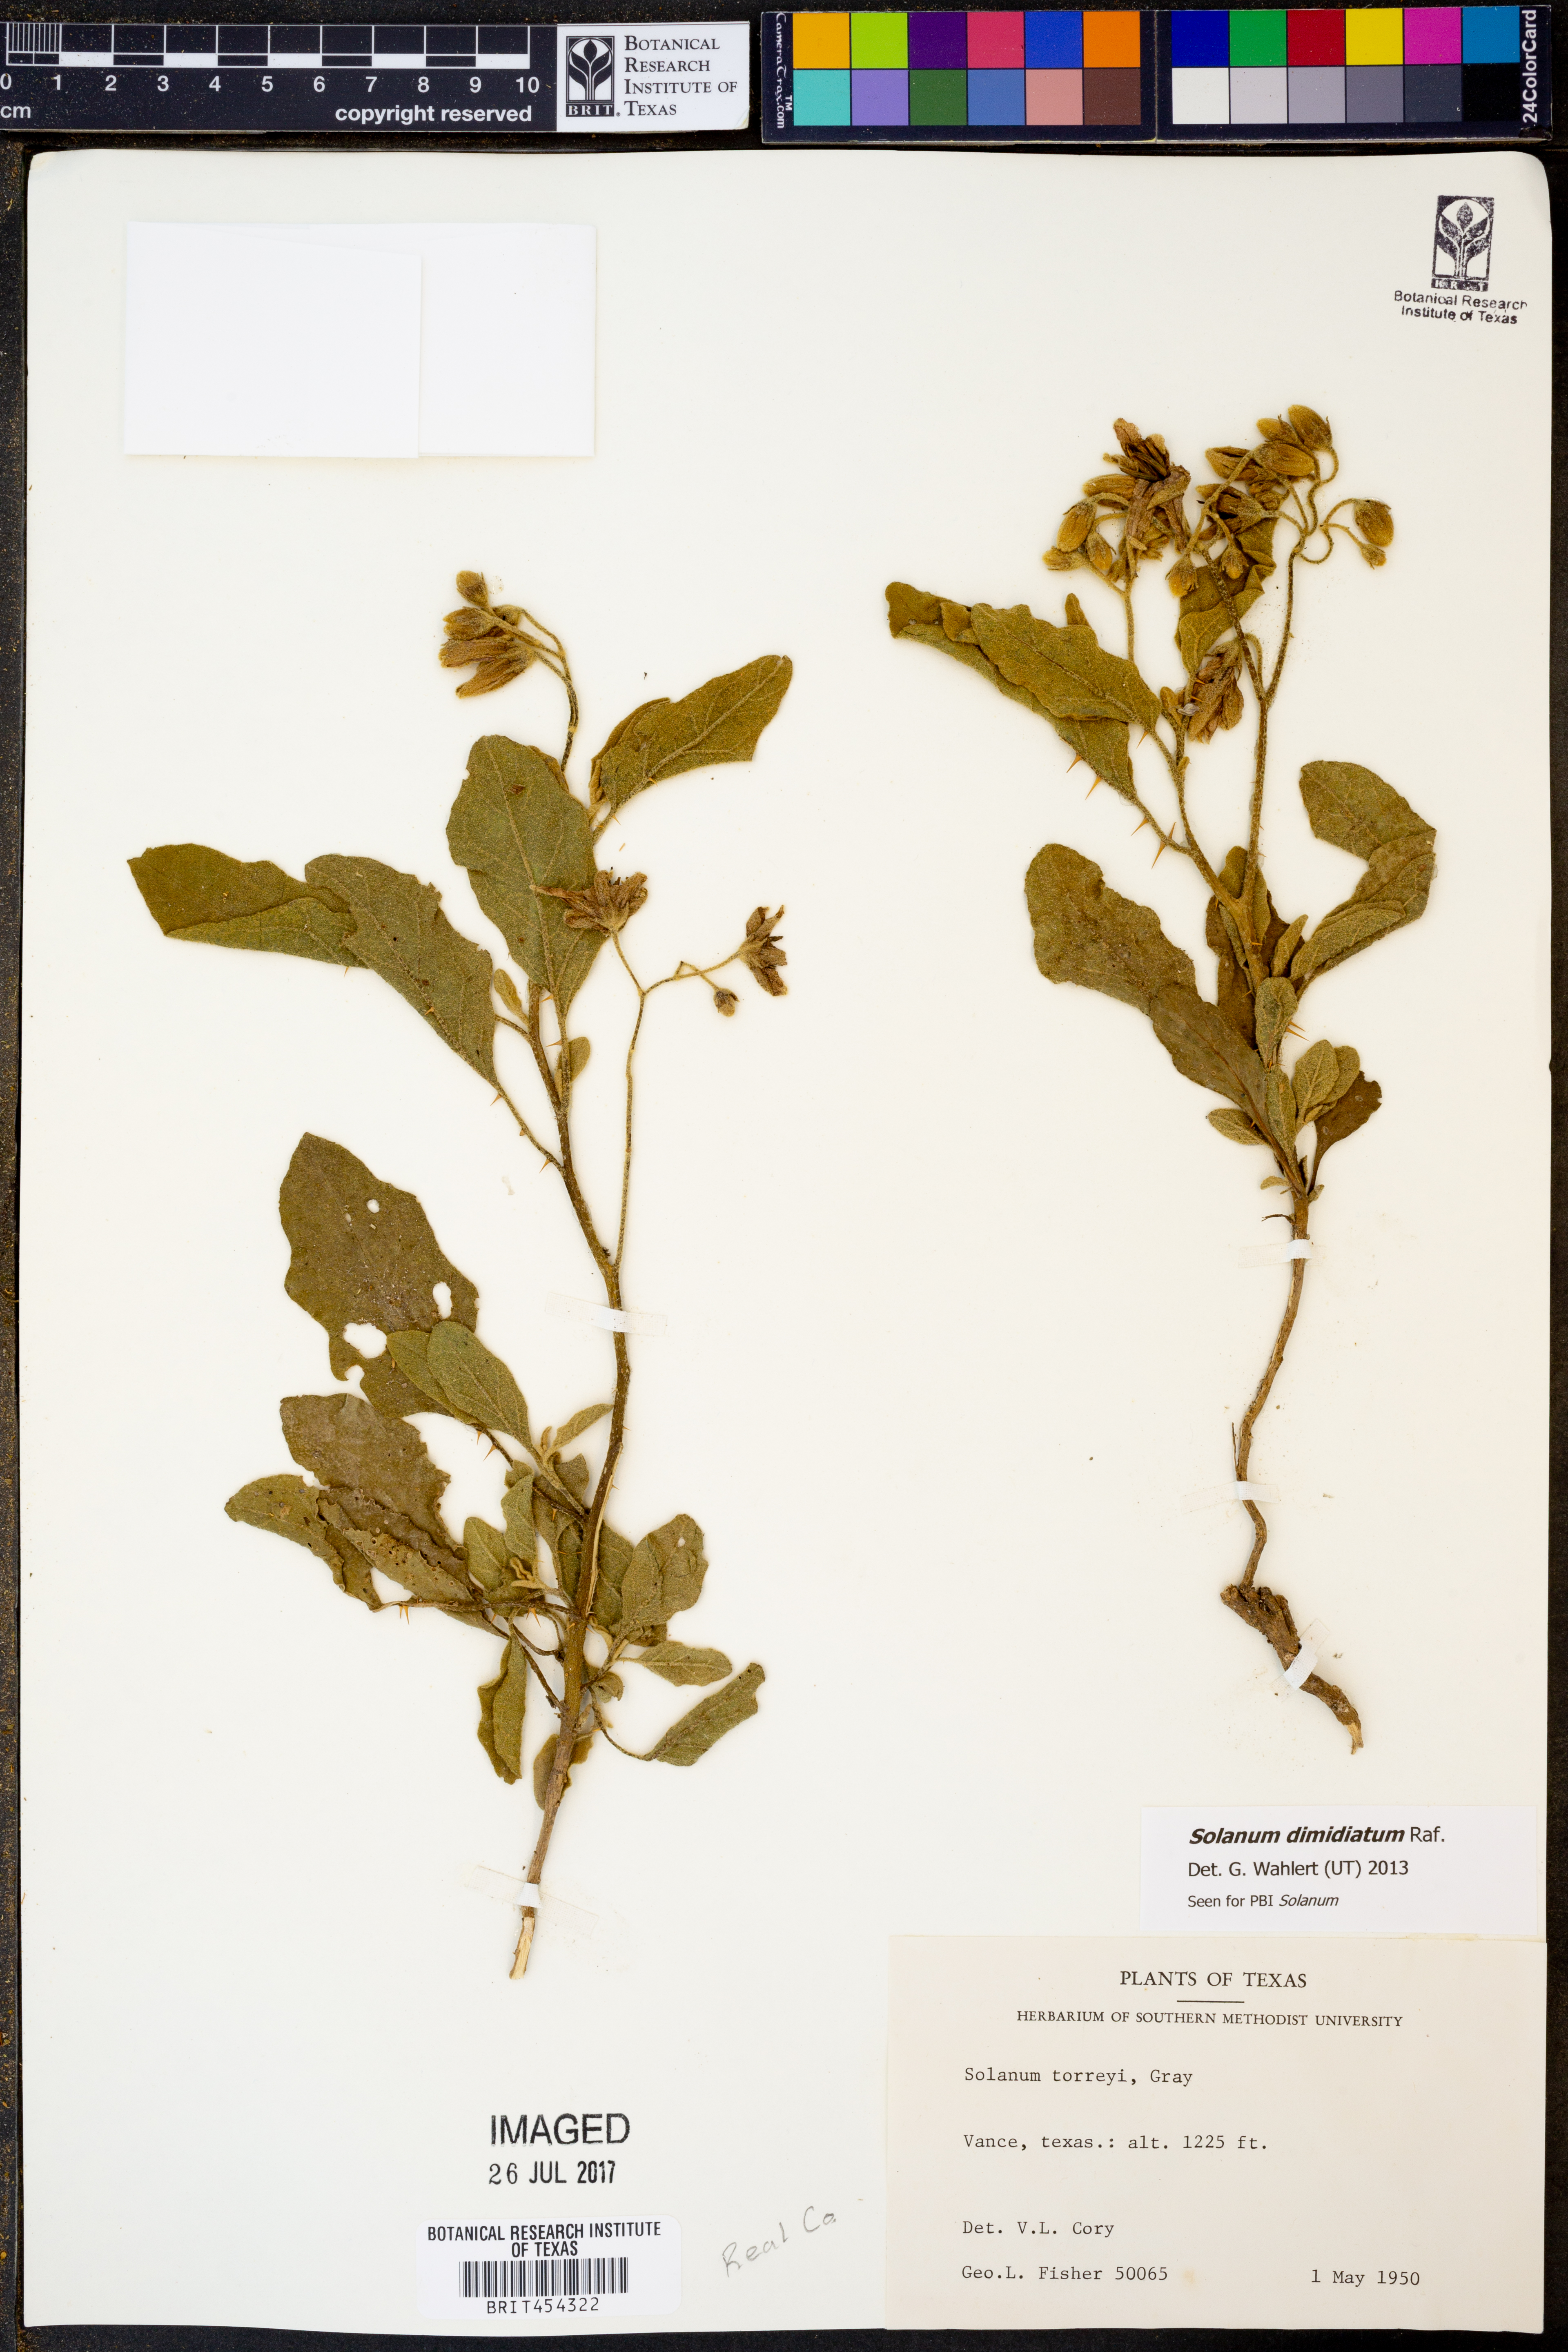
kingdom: Plantae
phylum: Tracheophyta
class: Magnoliopsida
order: Solanales
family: Solanaceae
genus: Solanum
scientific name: Solanum dimidiatum
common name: Carolina horse-nettle
